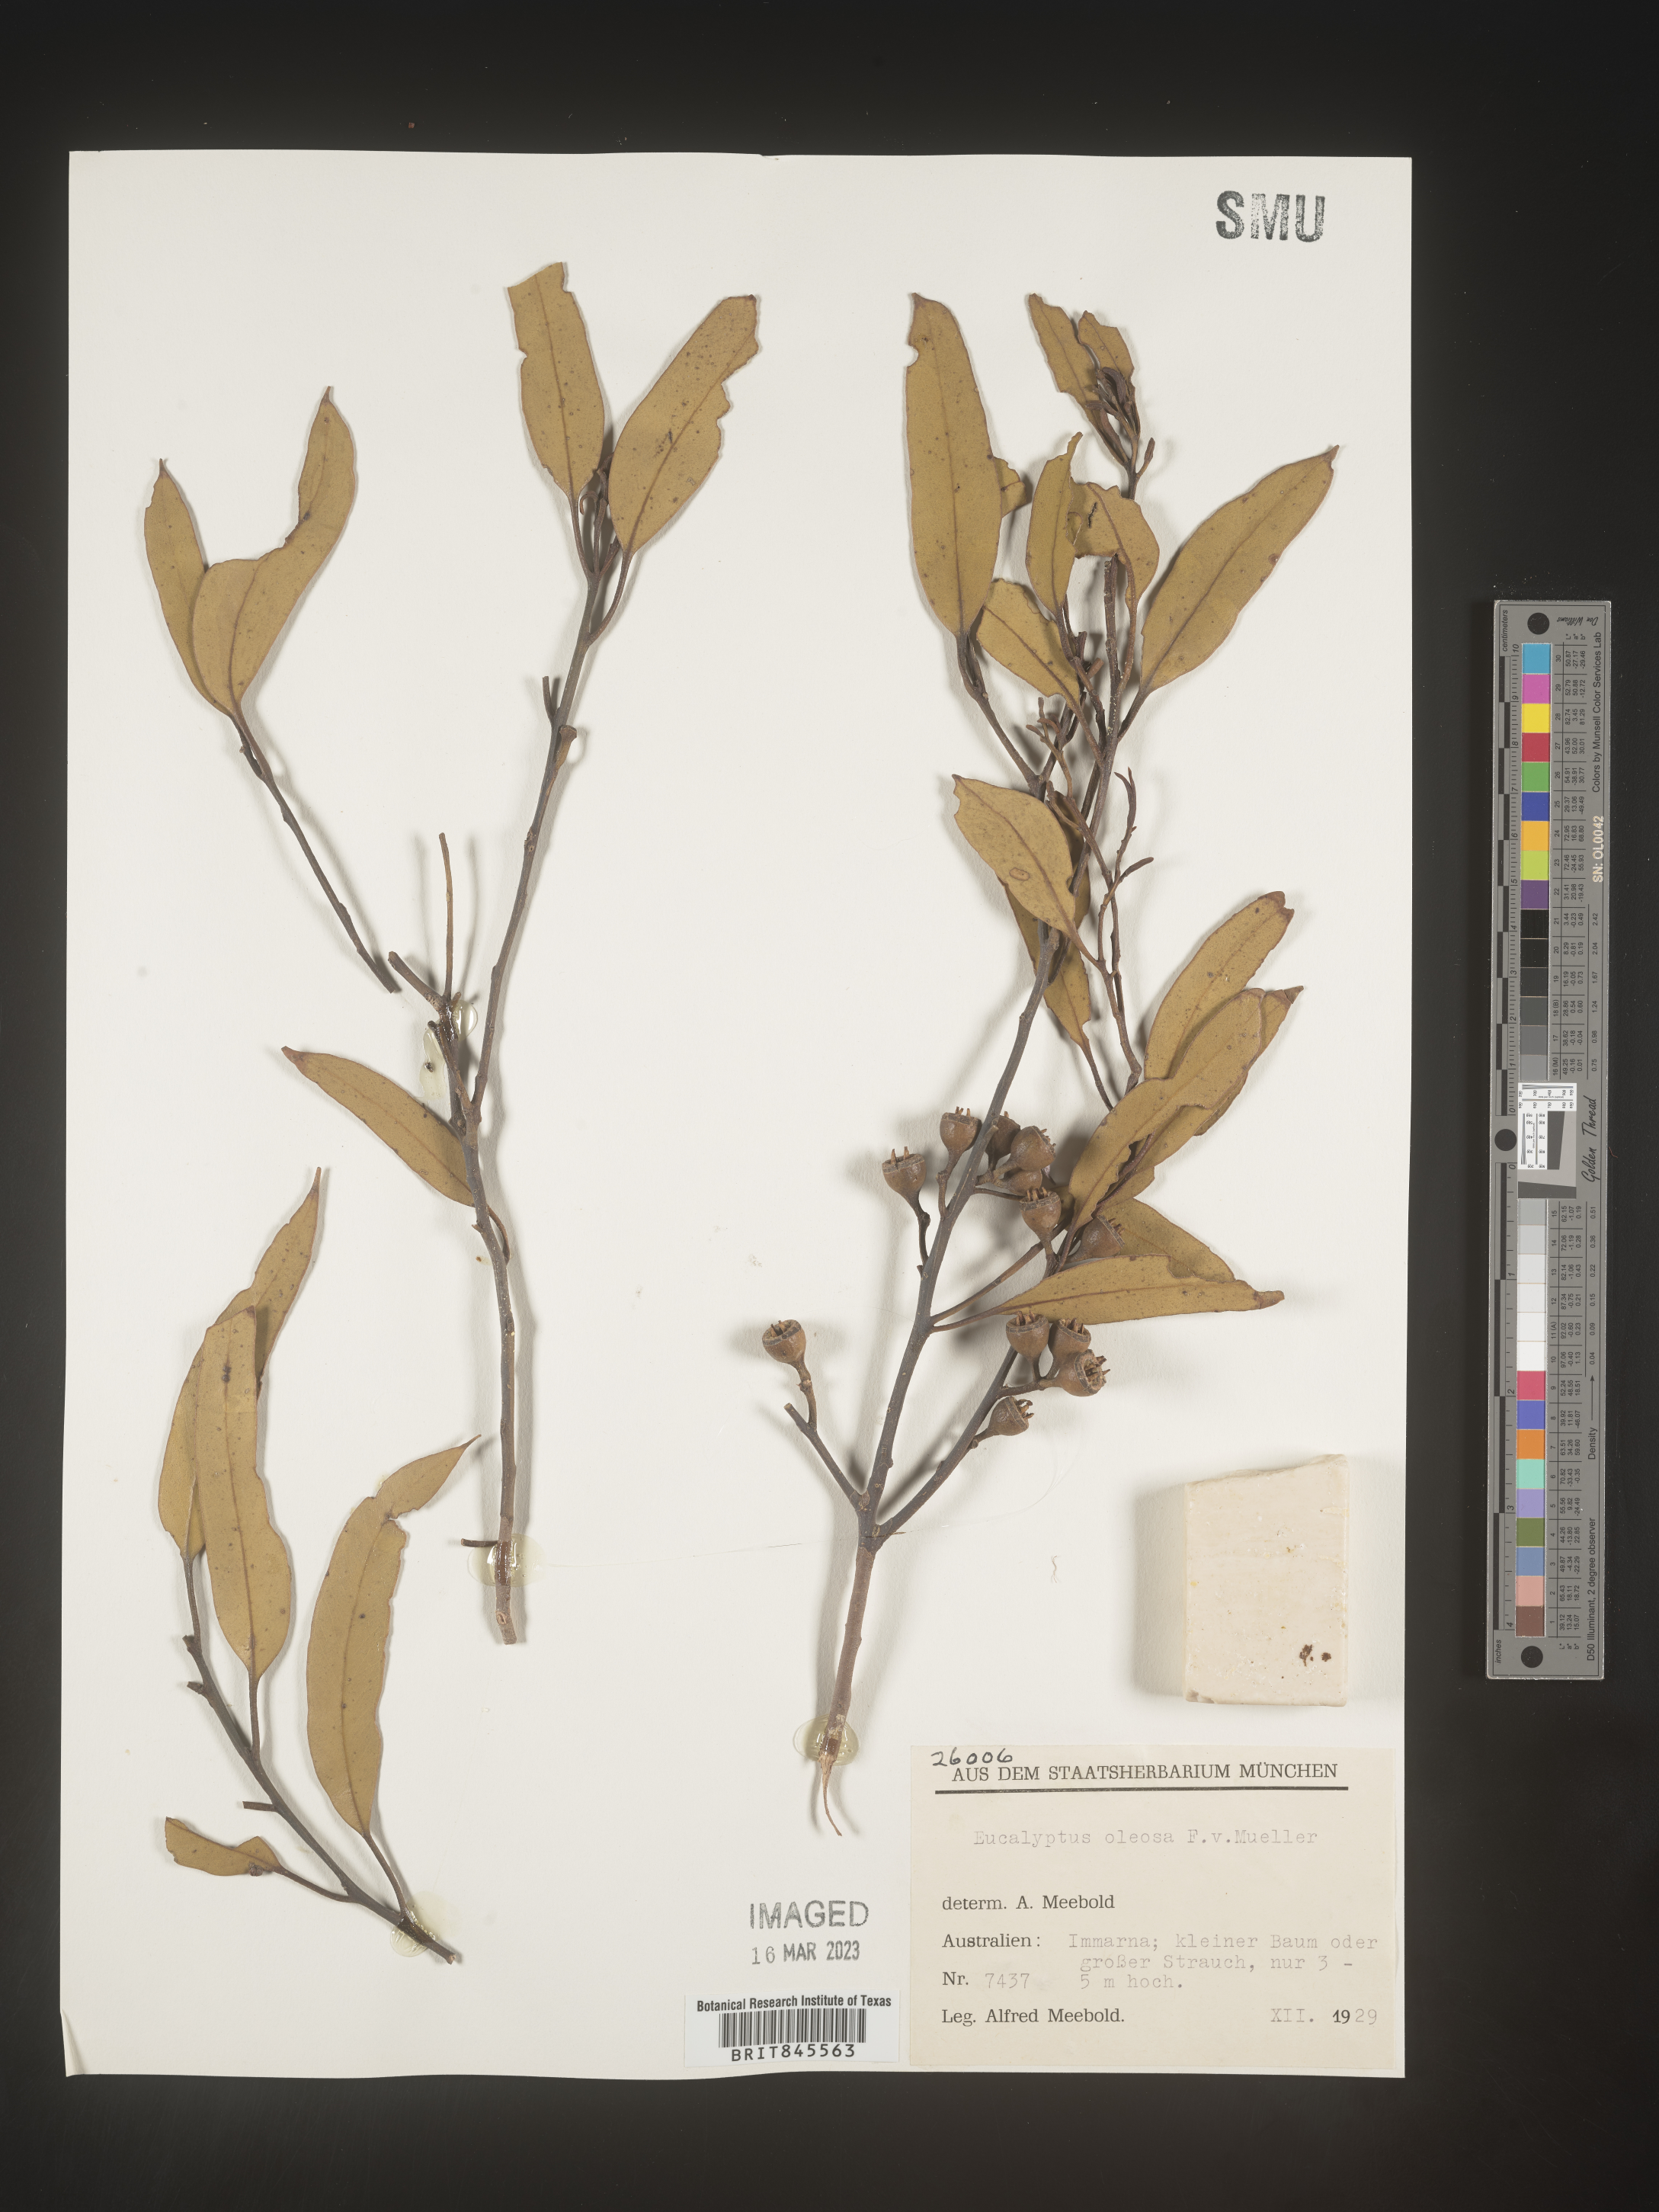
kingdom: Plantae
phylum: Tracheophyta
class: Magnoliopsida
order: Myrtales
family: Myrtaceae
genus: Eucalyptus
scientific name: Eucalyptus
